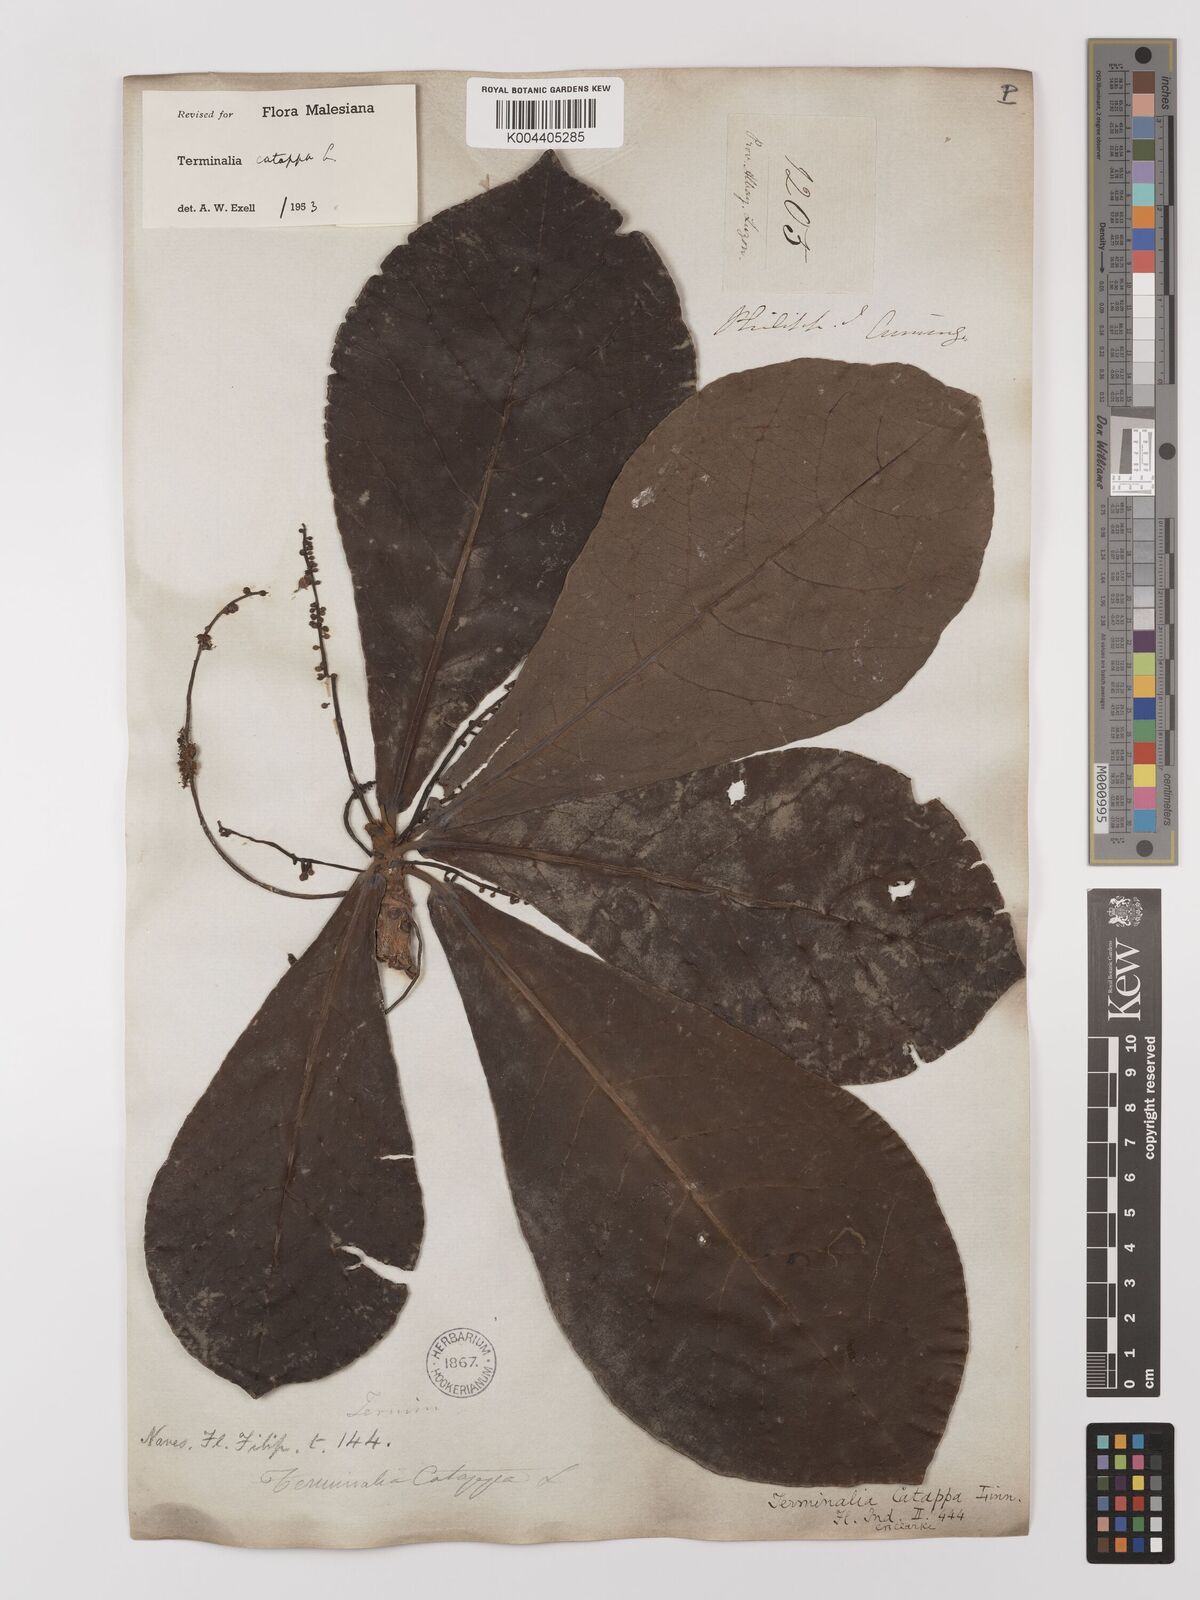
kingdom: Plantae
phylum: Tracheophyta
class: Magnoliopsida
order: Myrtales
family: Combretaceae
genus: Terminalia
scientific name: Terminalia catappa
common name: Tropical almond
